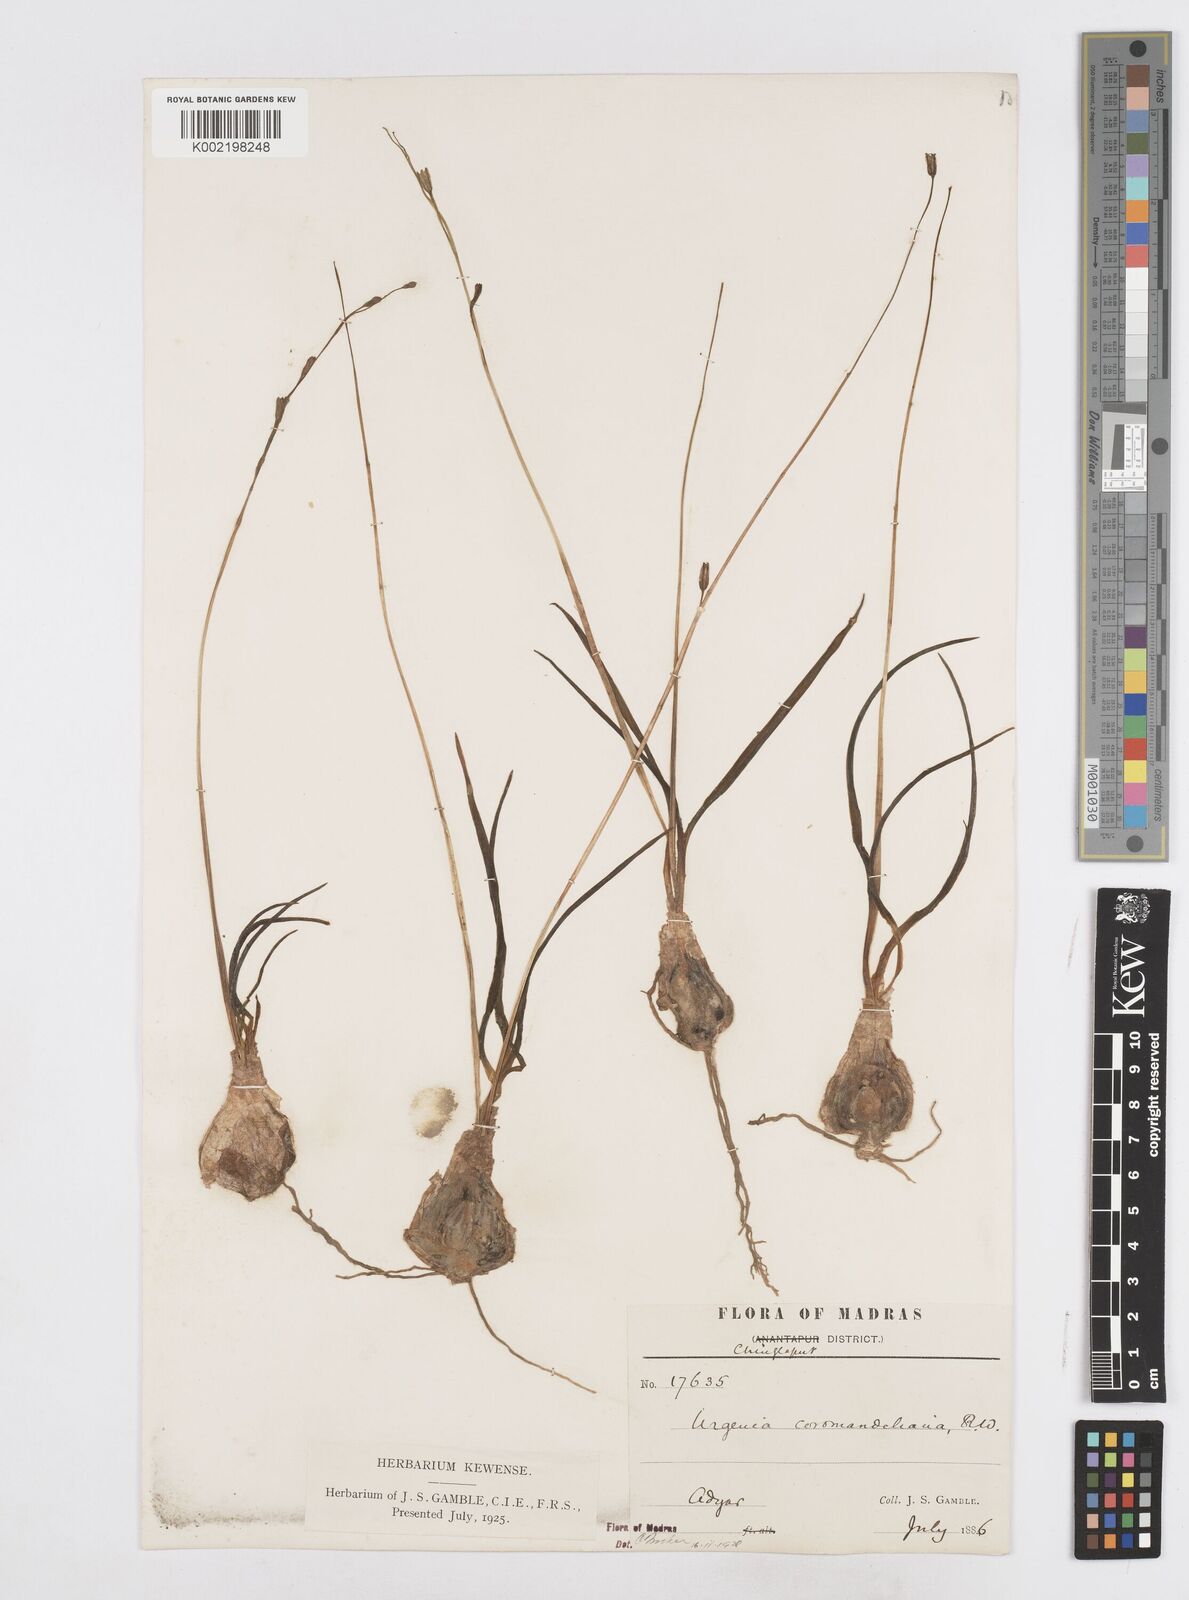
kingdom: Plantae
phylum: Tracheophyta
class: Liliopsida
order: Asparagales
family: Asparagaceae
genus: Drimia
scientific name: Drimia coromandeliana
